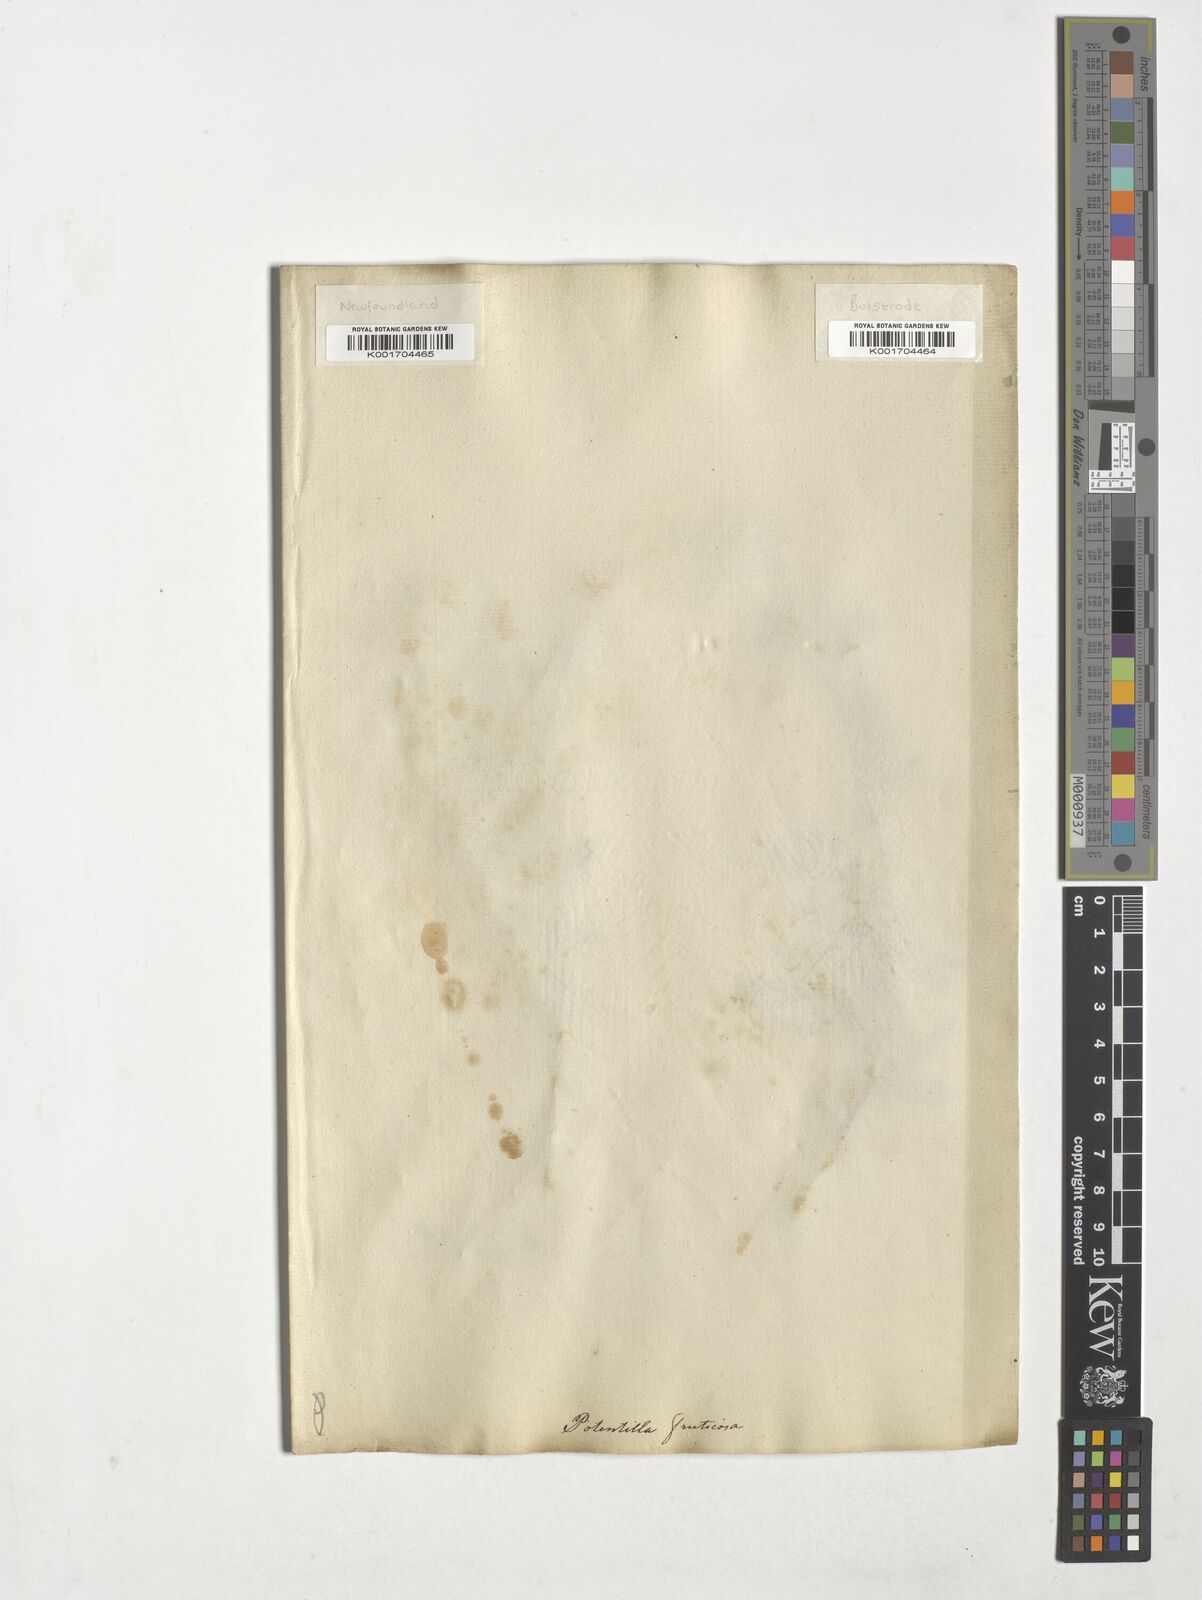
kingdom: Plantae
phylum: Tracheophyta
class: Magnoliopsida
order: Rosales
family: Rosaceae
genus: Dasiphora
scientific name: Dasiphora fruticosa
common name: Shrubby cinquefoil
